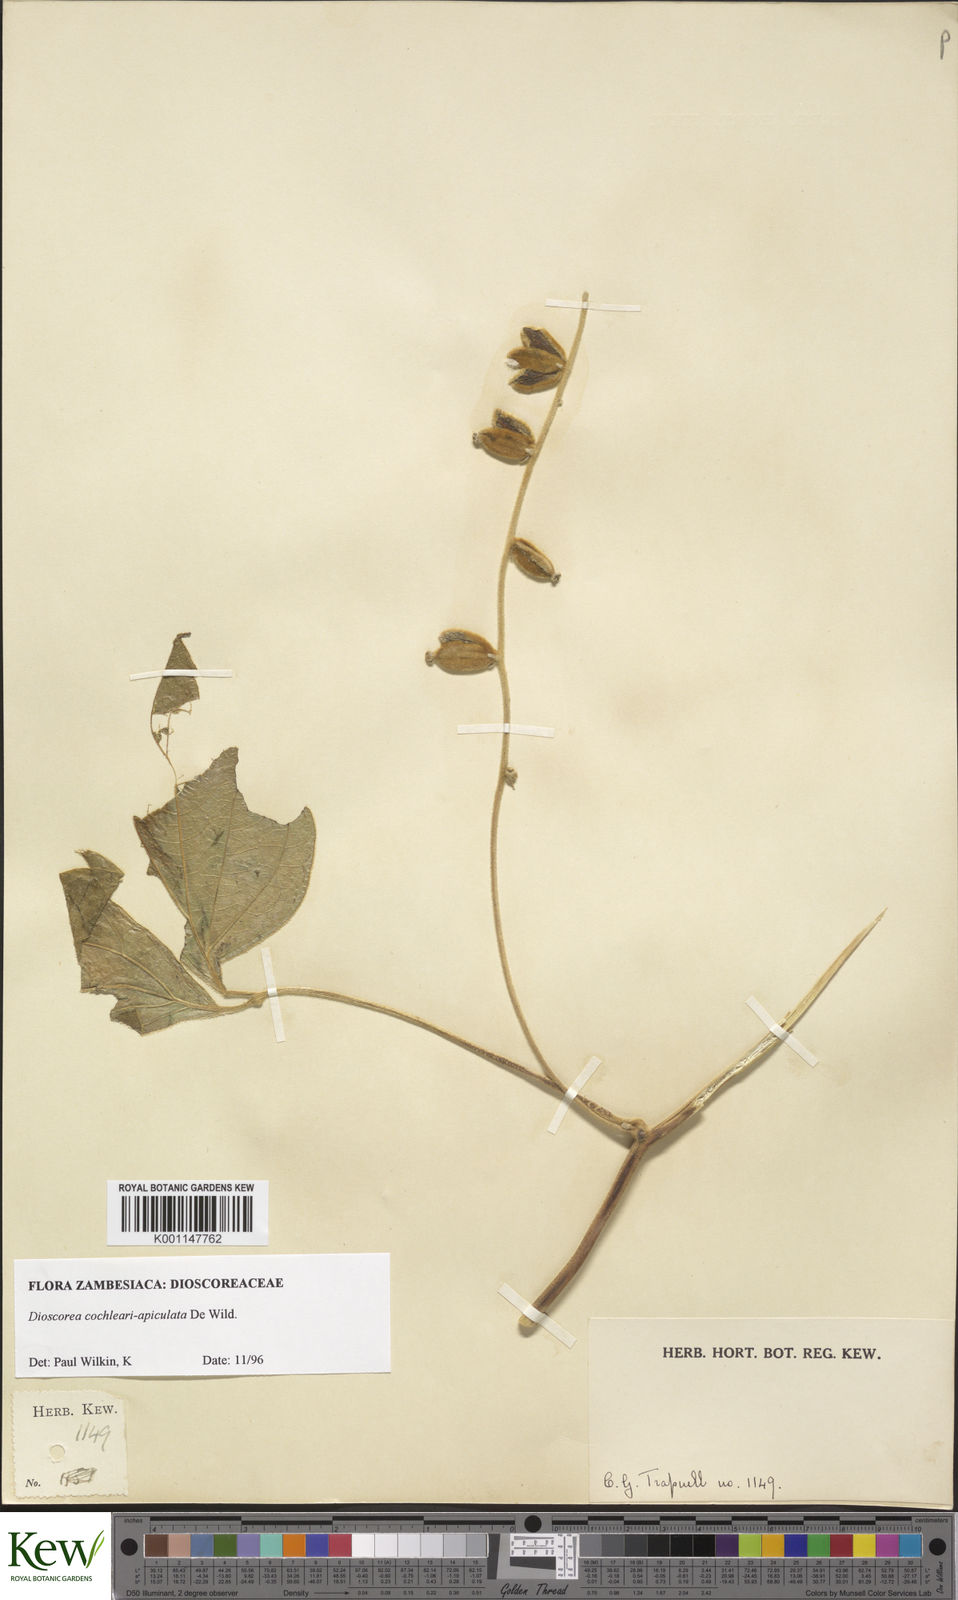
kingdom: Plantae
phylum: Tracheophyta
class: Liliopsida
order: Dioscoreales
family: Dioscoreaceae
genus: Dioscorea
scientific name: Dioscorea cochleariapiculata
